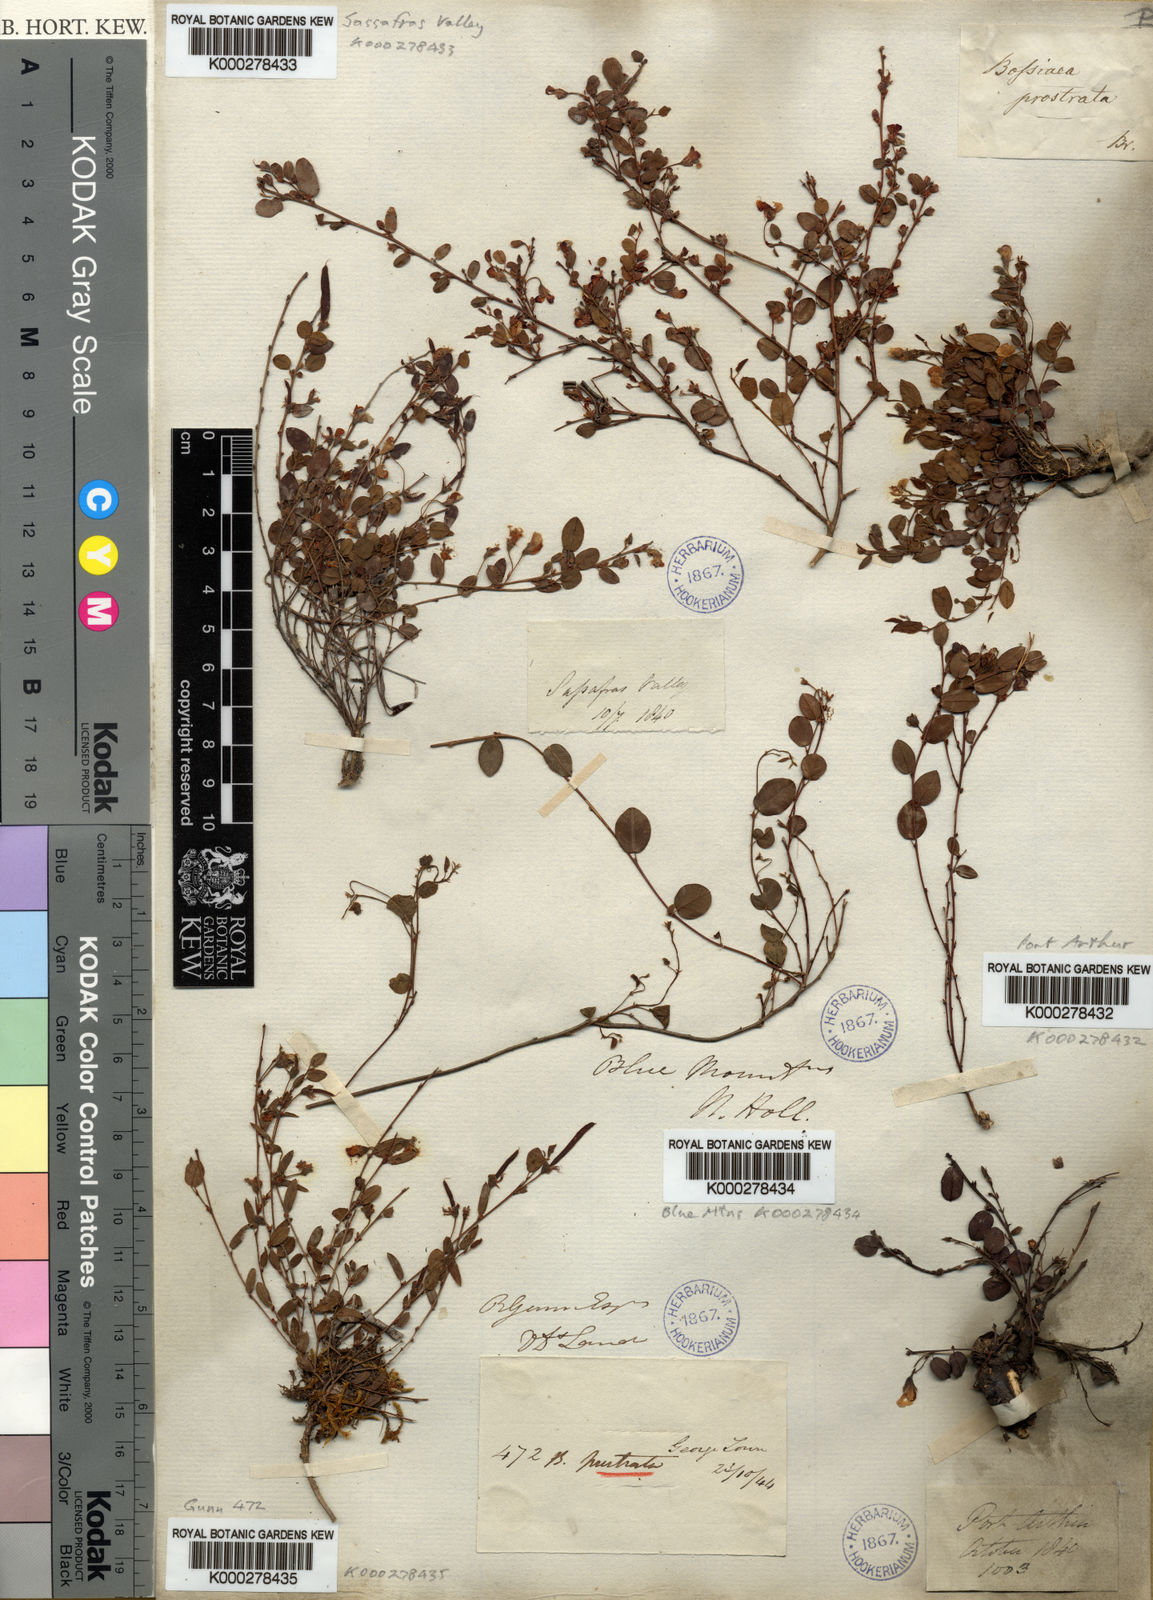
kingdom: Plantae
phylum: Tracheophyta
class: Magnoliopsida
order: Fabales
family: Fabaceae
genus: Bossiaea
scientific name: Bossiaea prostrata
